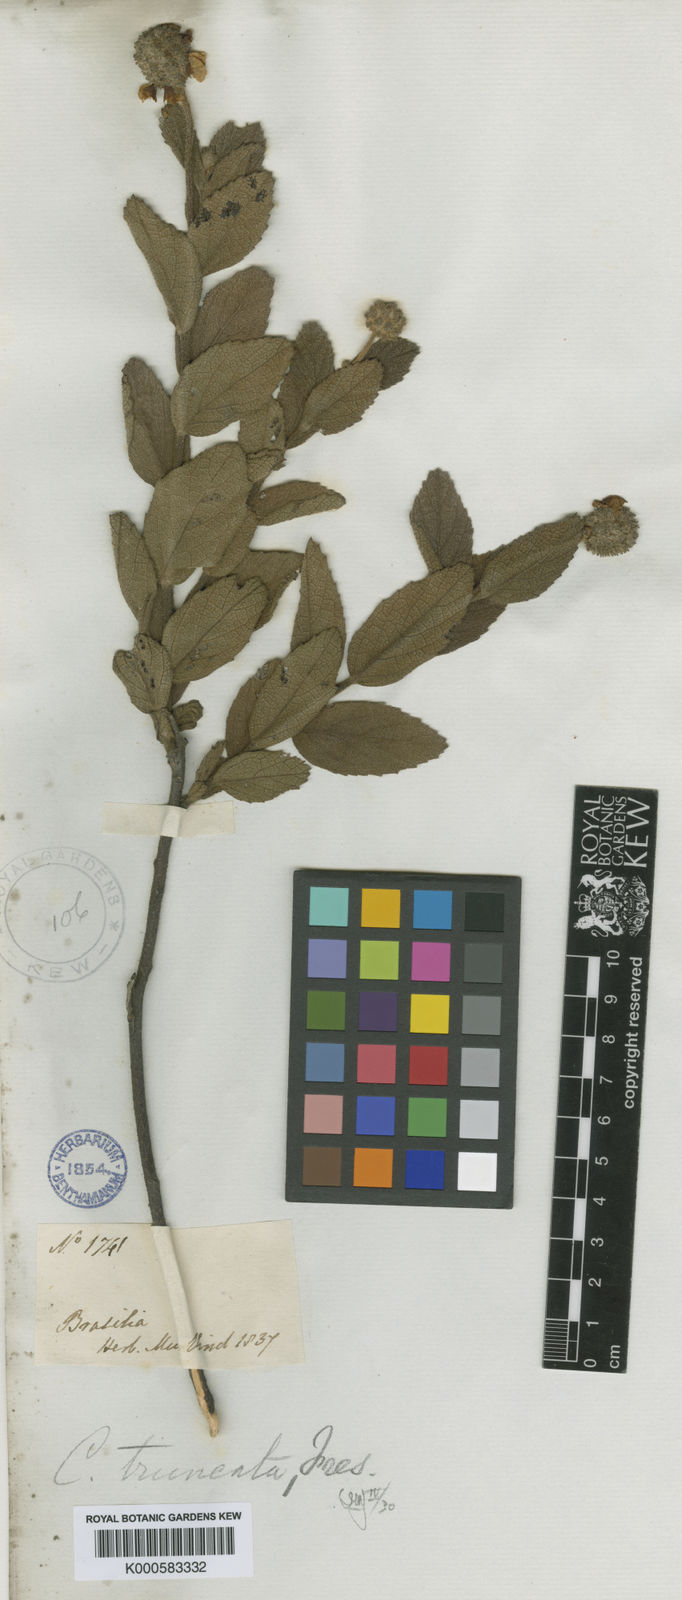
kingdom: Plantae
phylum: Tracheophyta
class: Magnoliopsida
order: Boraginales
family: Cordiaceae
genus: Varronia
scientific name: Varronia truncata
